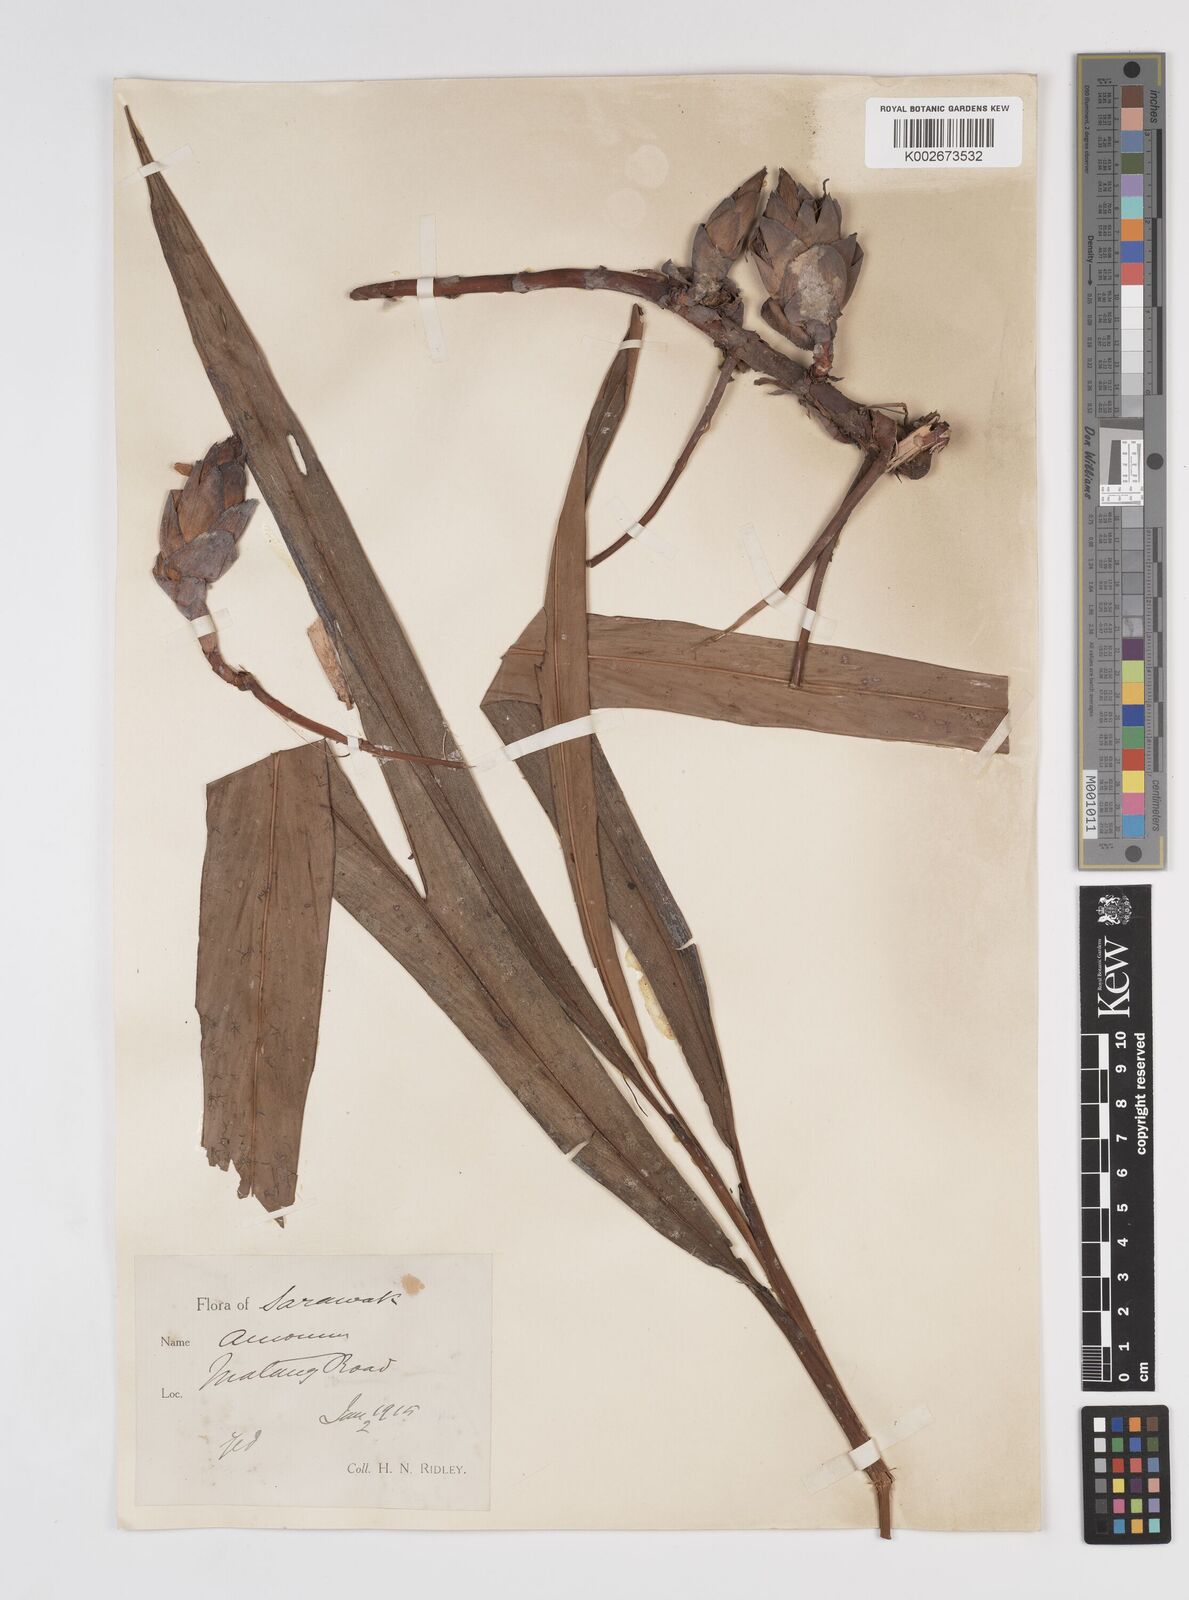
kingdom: Plantae
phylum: Tracheophyta
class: Liliopsida
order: Zingiberales
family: Zingiberaceae
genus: Amomum
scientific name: Amomum
